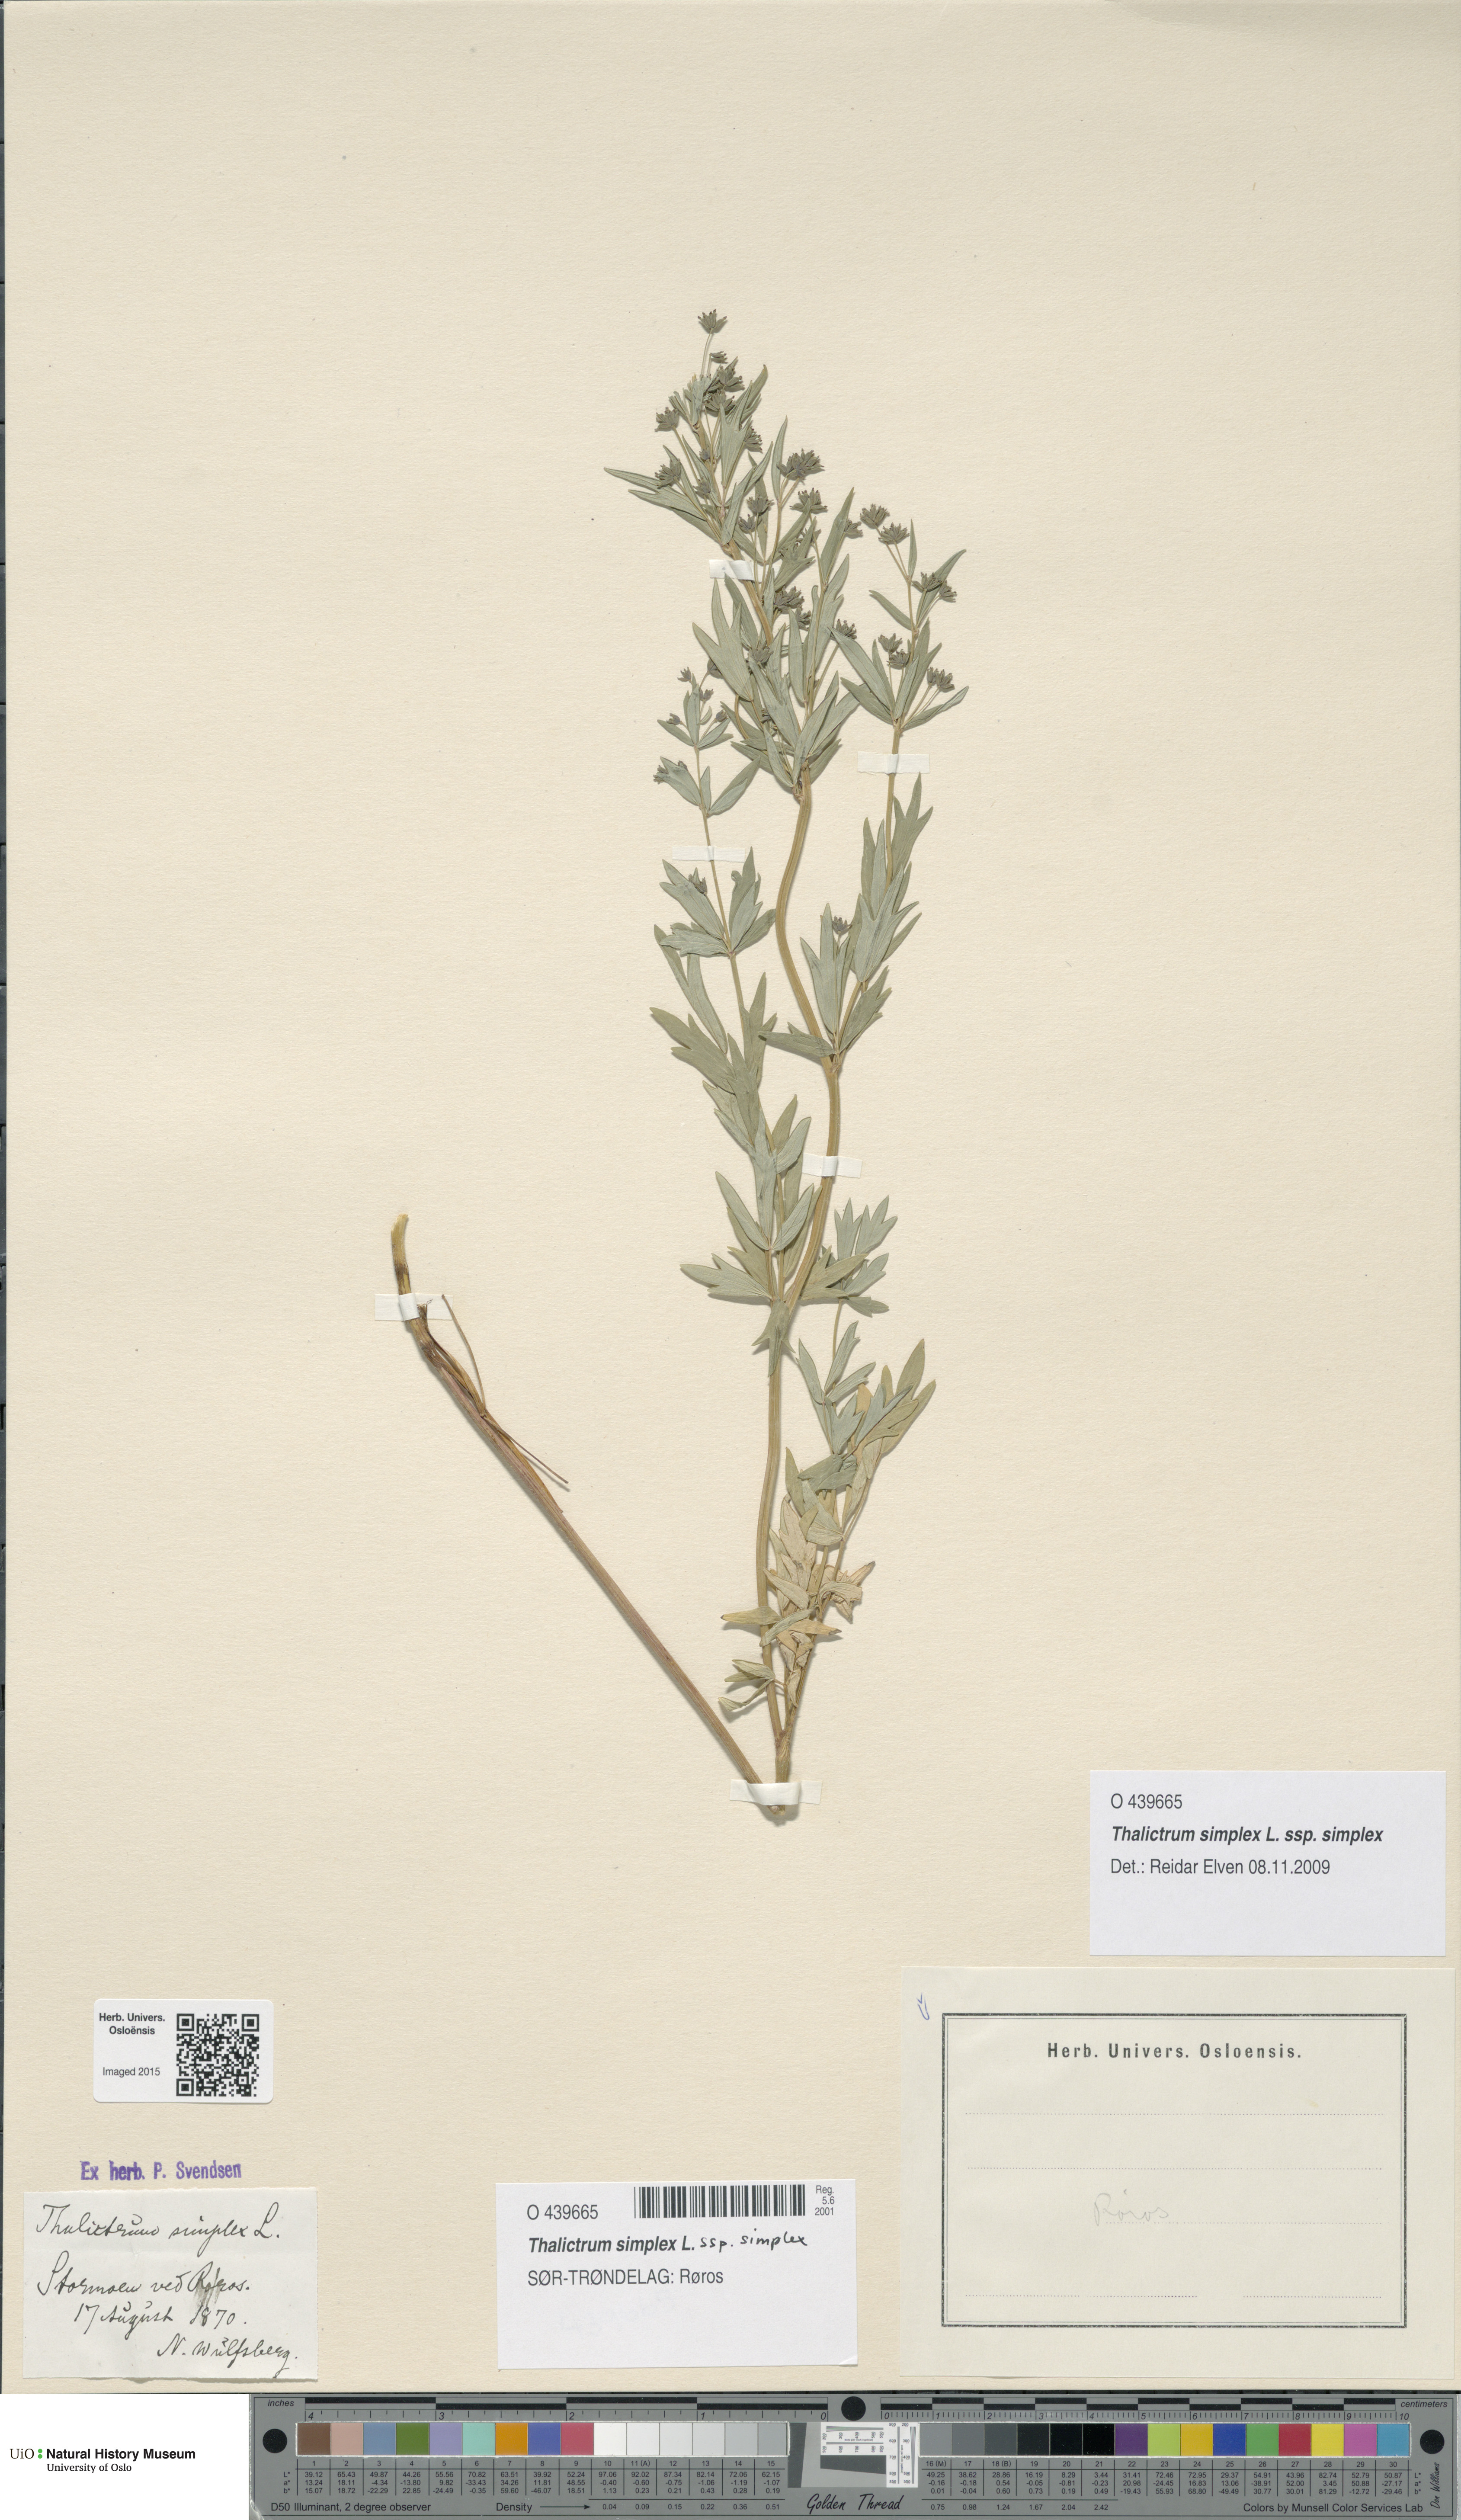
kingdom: Plantae
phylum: Tracheophyta
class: Magnoliopsida
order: Ranunculales
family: Ranunculaceae
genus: Thalictrum
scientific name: Thalictrum simplex
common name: Small meadow-rue
